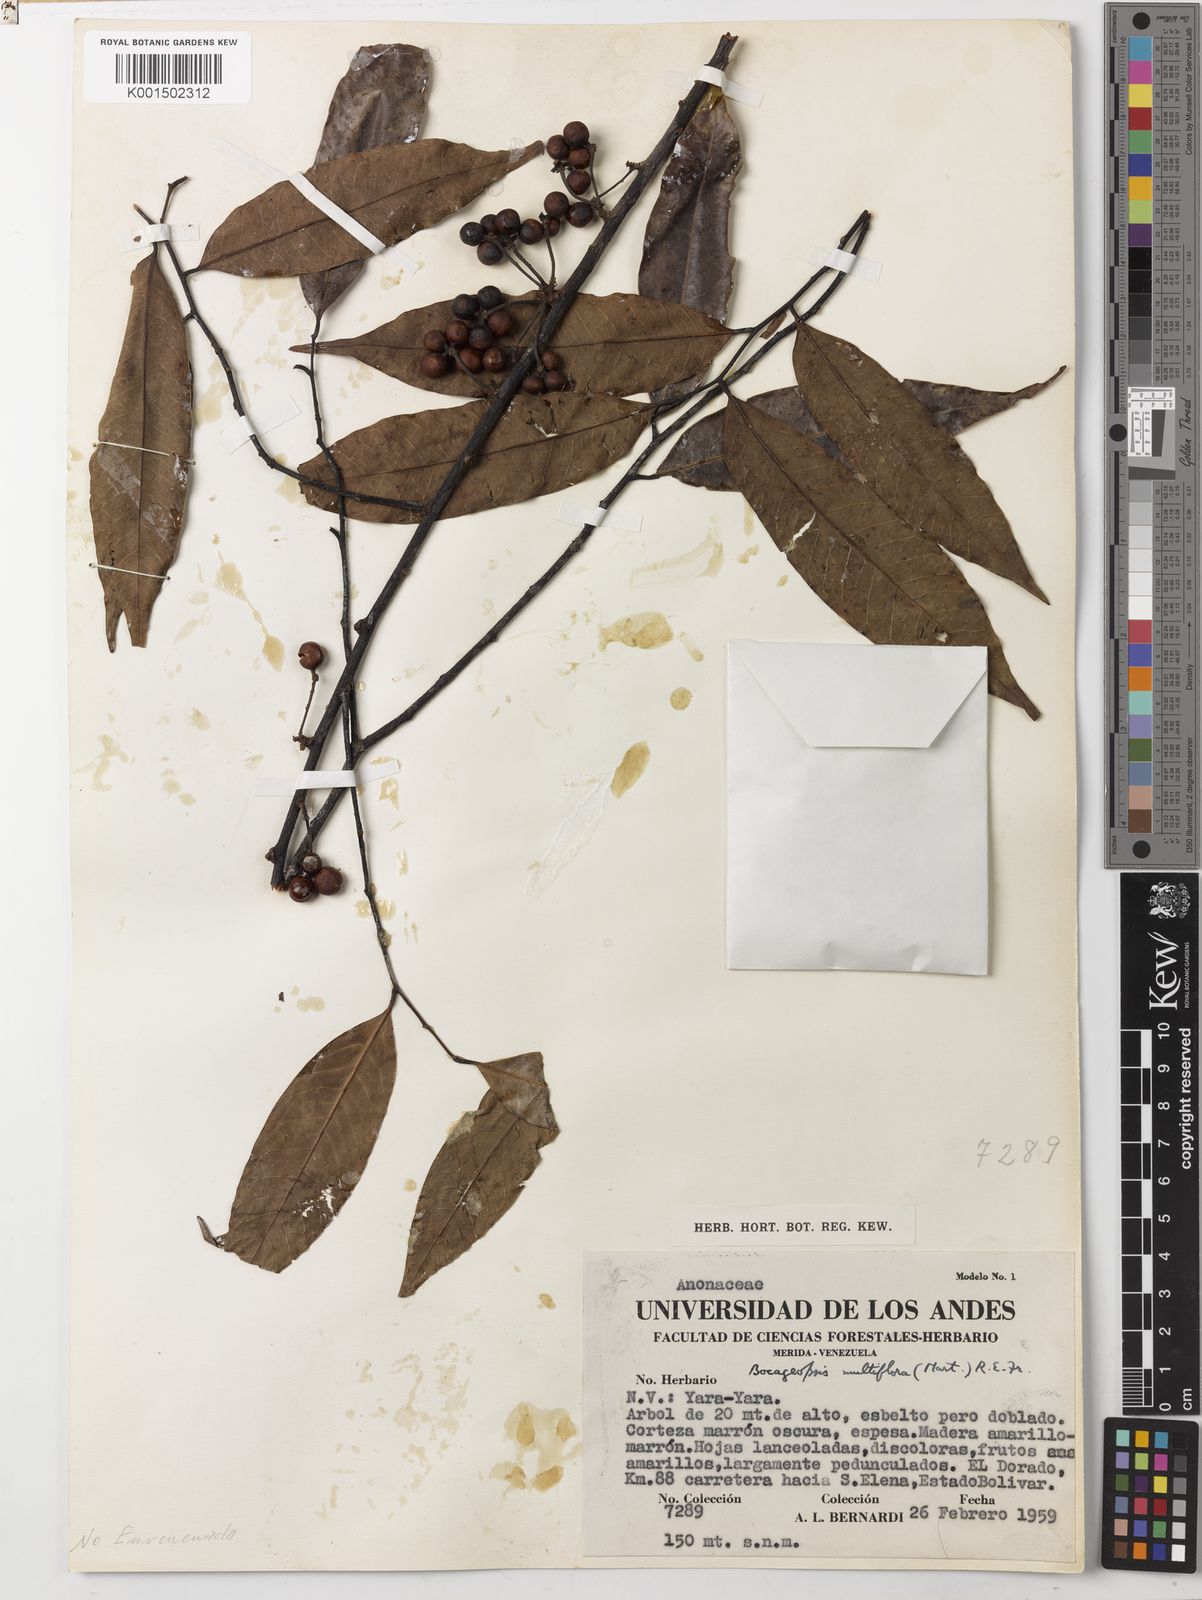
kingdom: Plantae
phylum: Tracheophyta
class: Magnoliopsida
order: Magnoliales
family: Annonaceae
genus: Bocageopsis
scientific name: Bocageopsis multiflora
